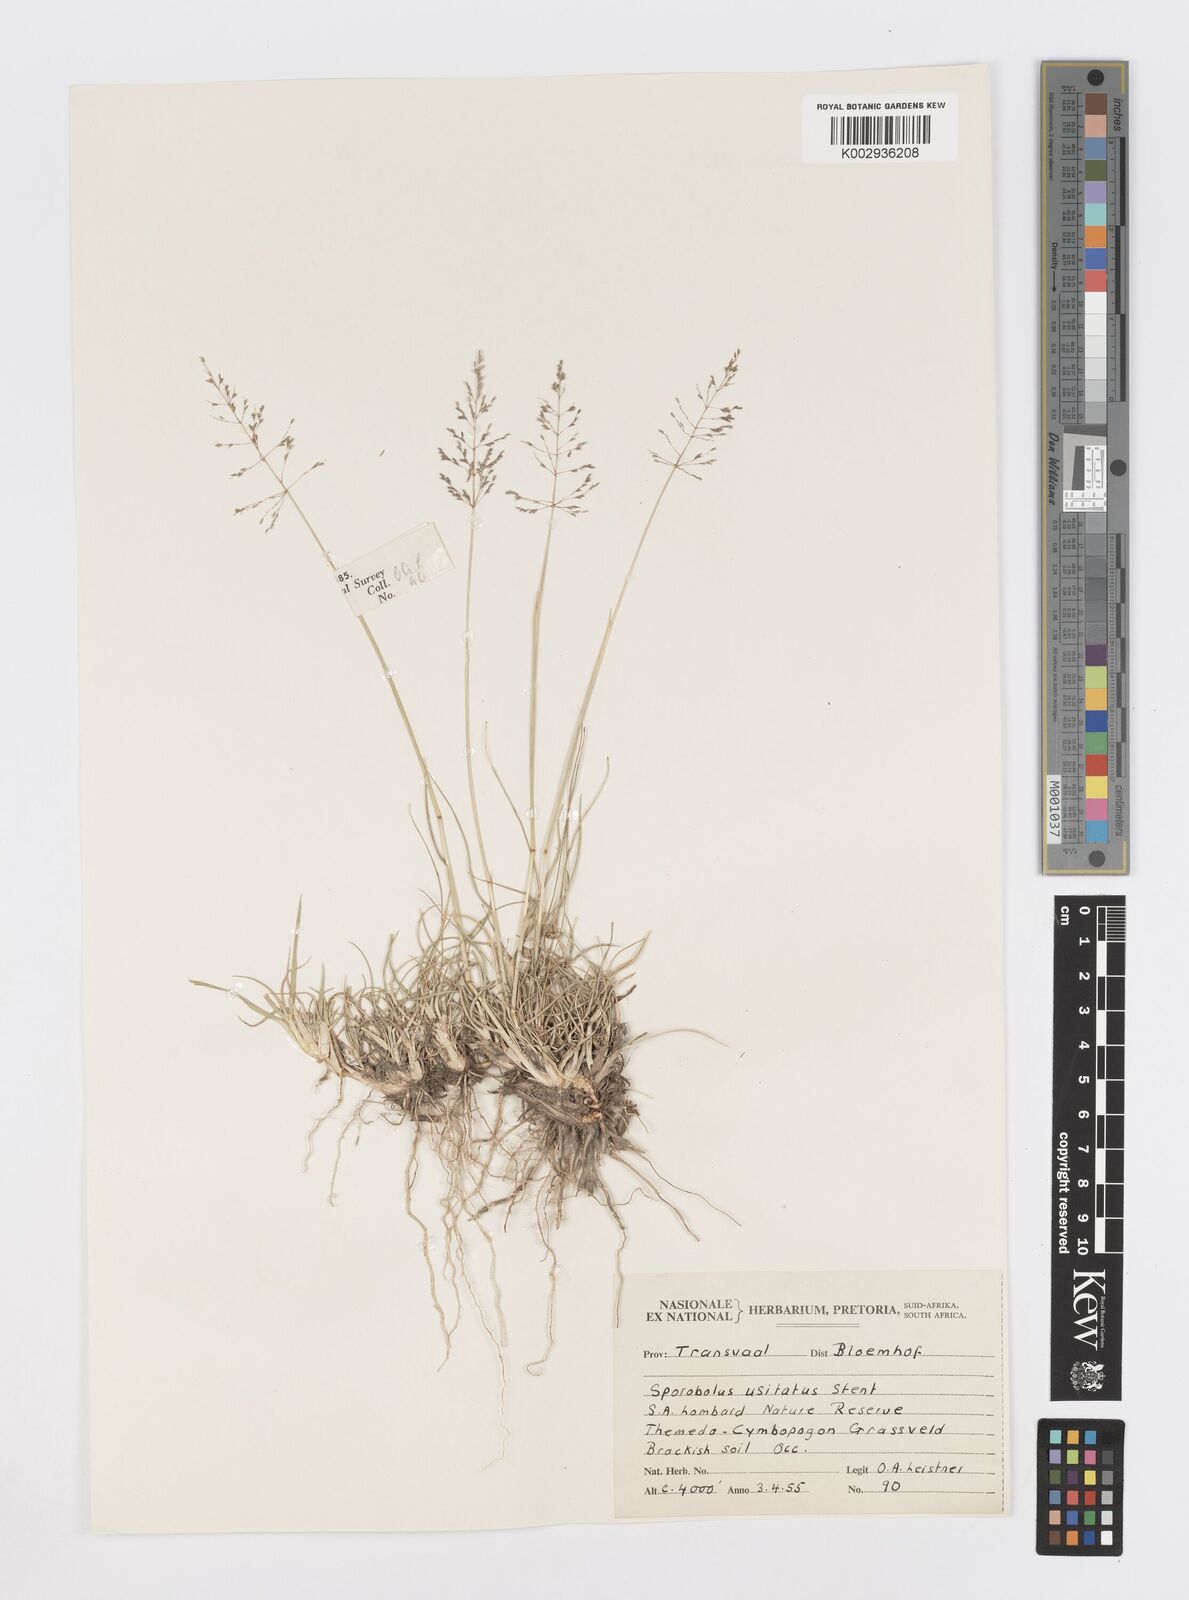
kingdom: Plantae
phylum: Tracheophyta
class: Liliopsida
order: Poales
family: Poaceae
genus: Sporobolus
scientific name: Sporobolus ioclados
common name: Pan dropseed
